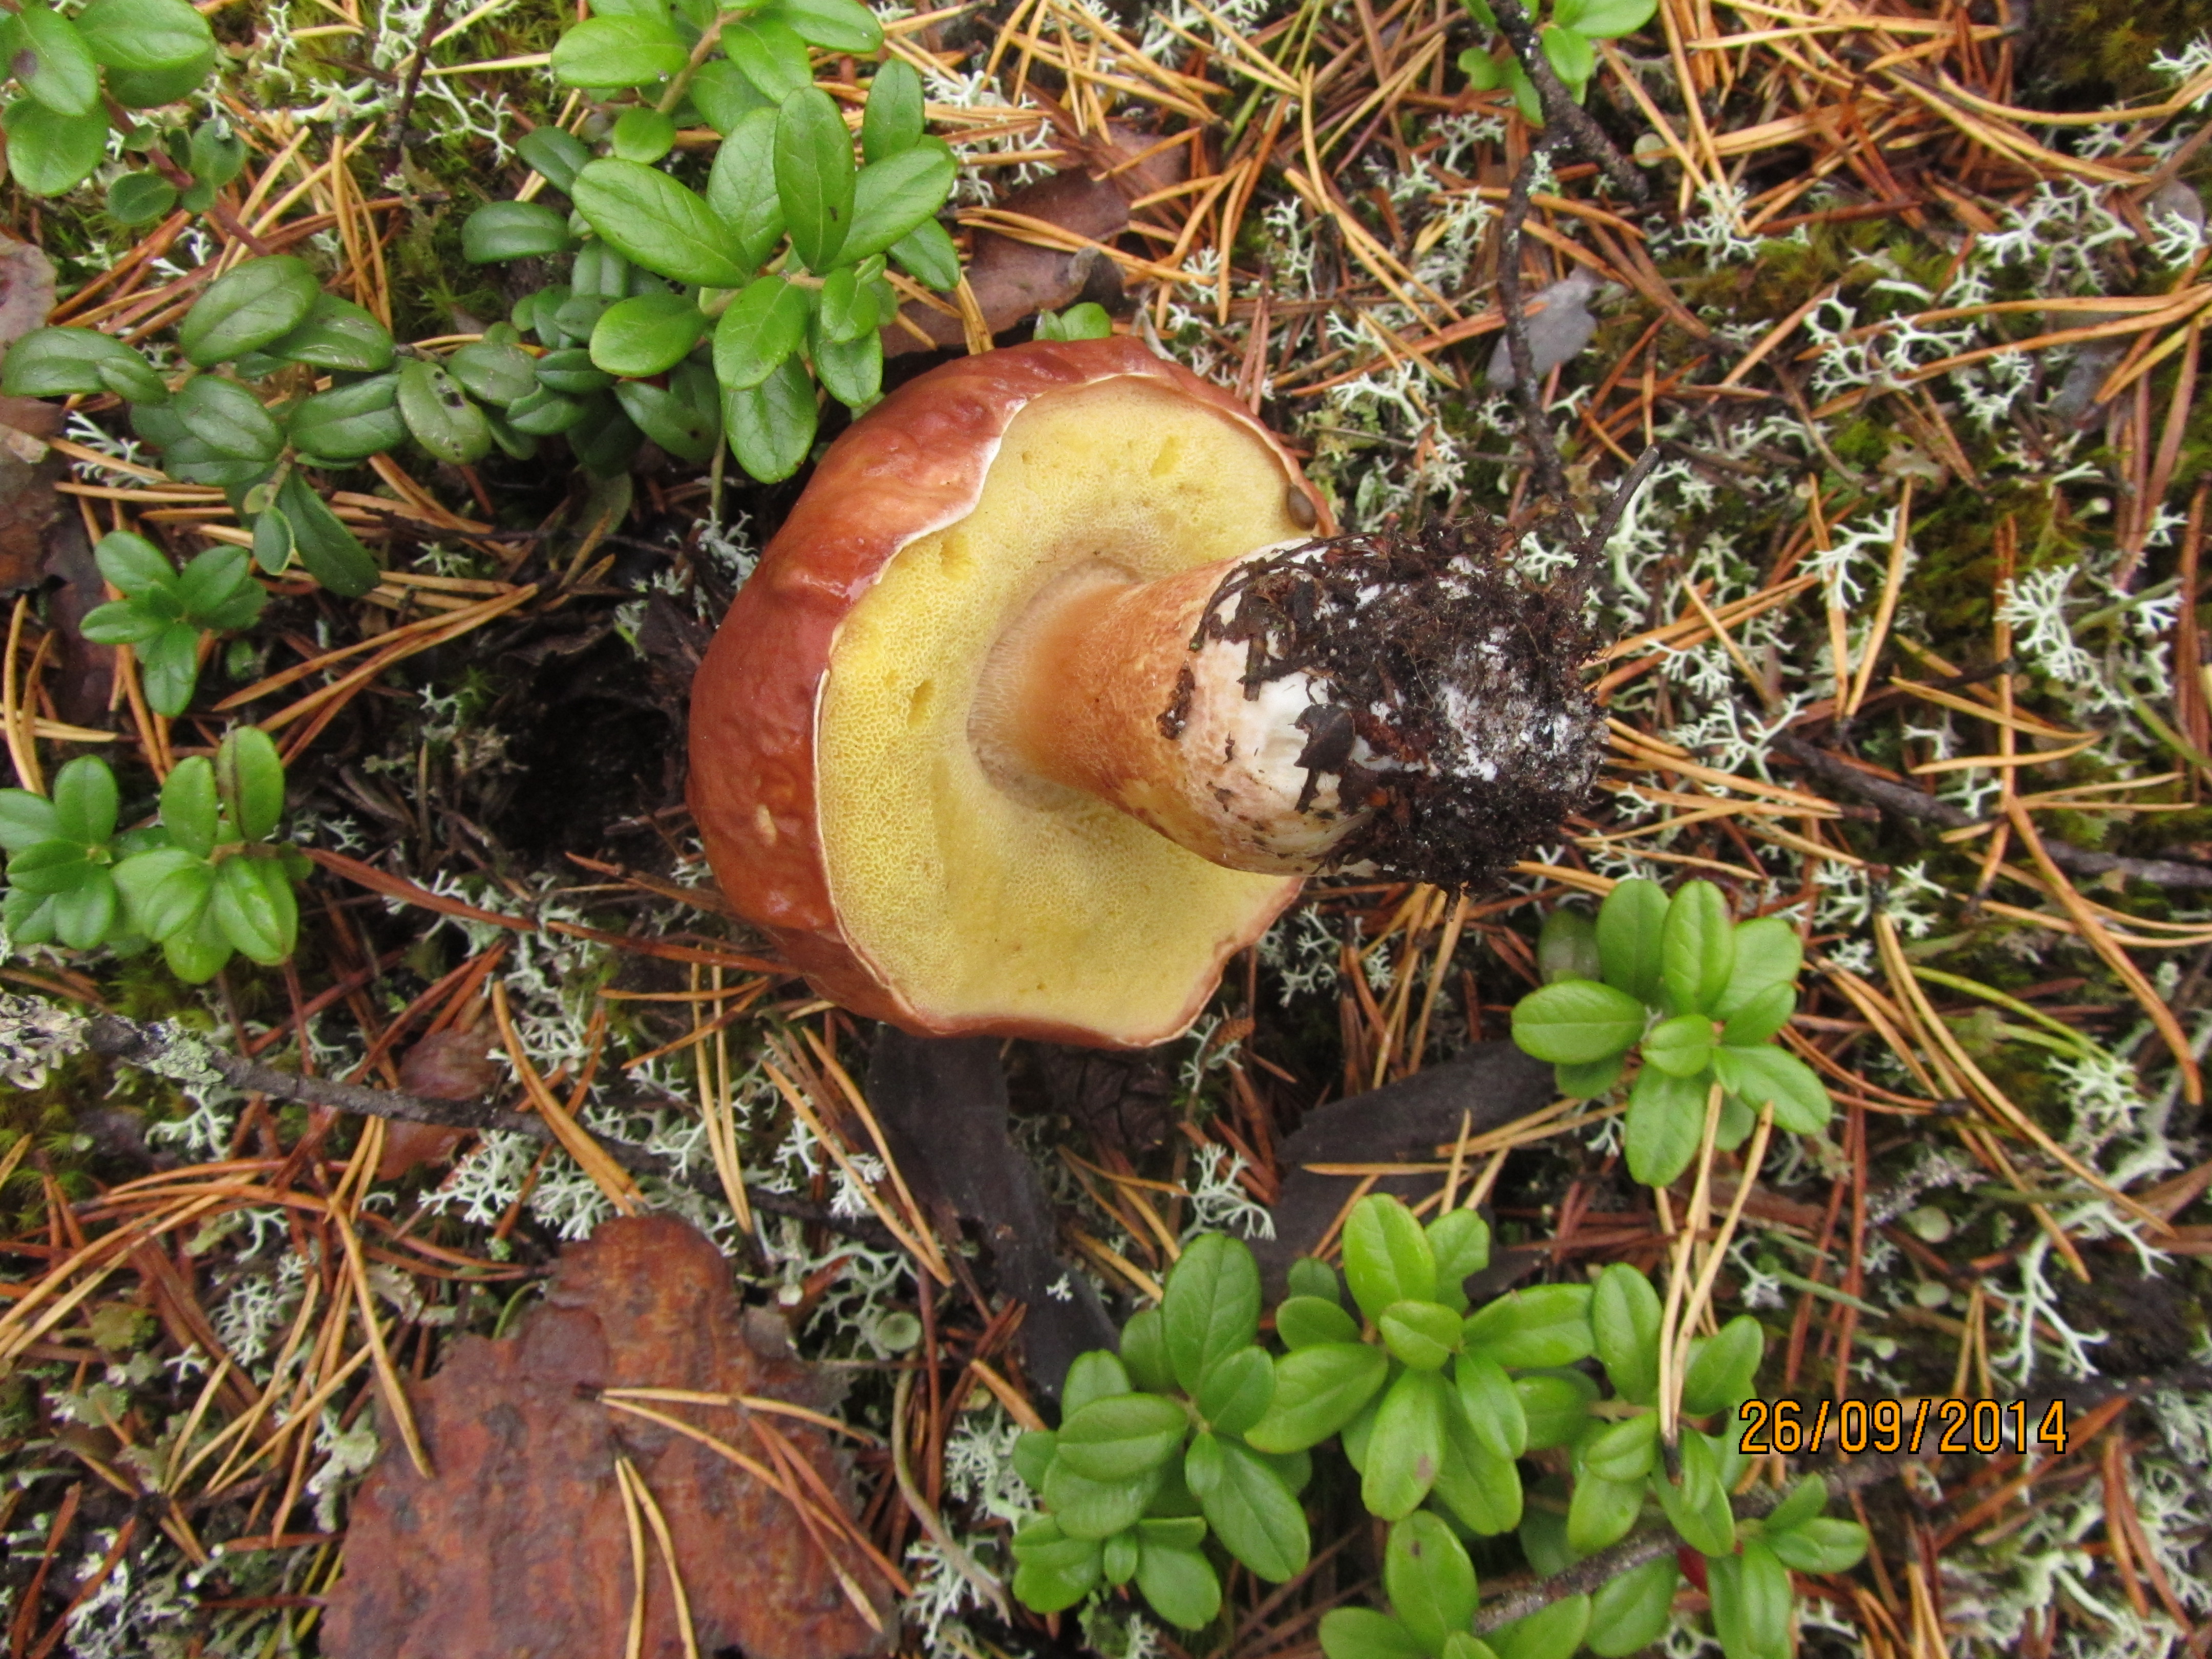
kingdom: Fungi
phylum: Basidiomycota
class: Agaricomycetes
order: Boletales
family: Boletaceae
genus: Boletus
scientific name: Boletus pinophilus
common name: Pine bolete
